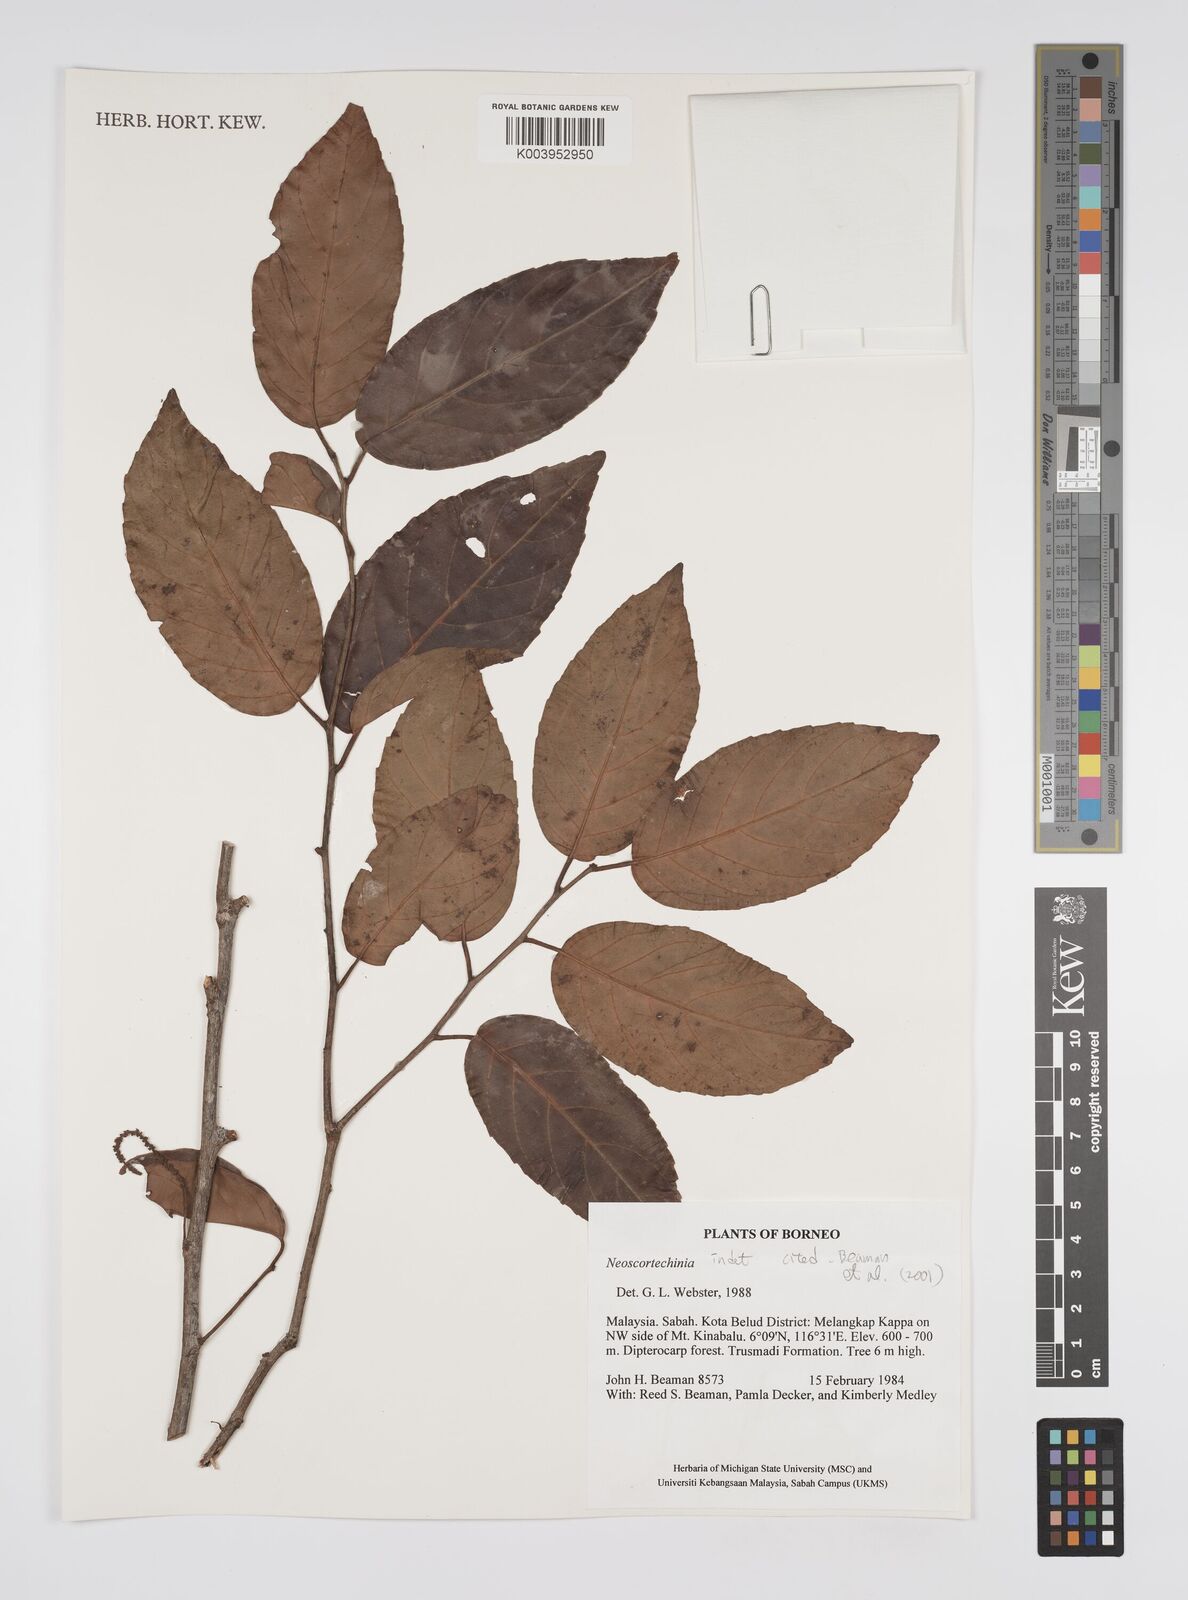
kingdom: Plantae
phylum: Tracheophyta
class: Magnoliopsida
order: Malpighiales
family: Euphorbiaceae
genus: Neoscortechinia
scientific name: Neoscortechinia
